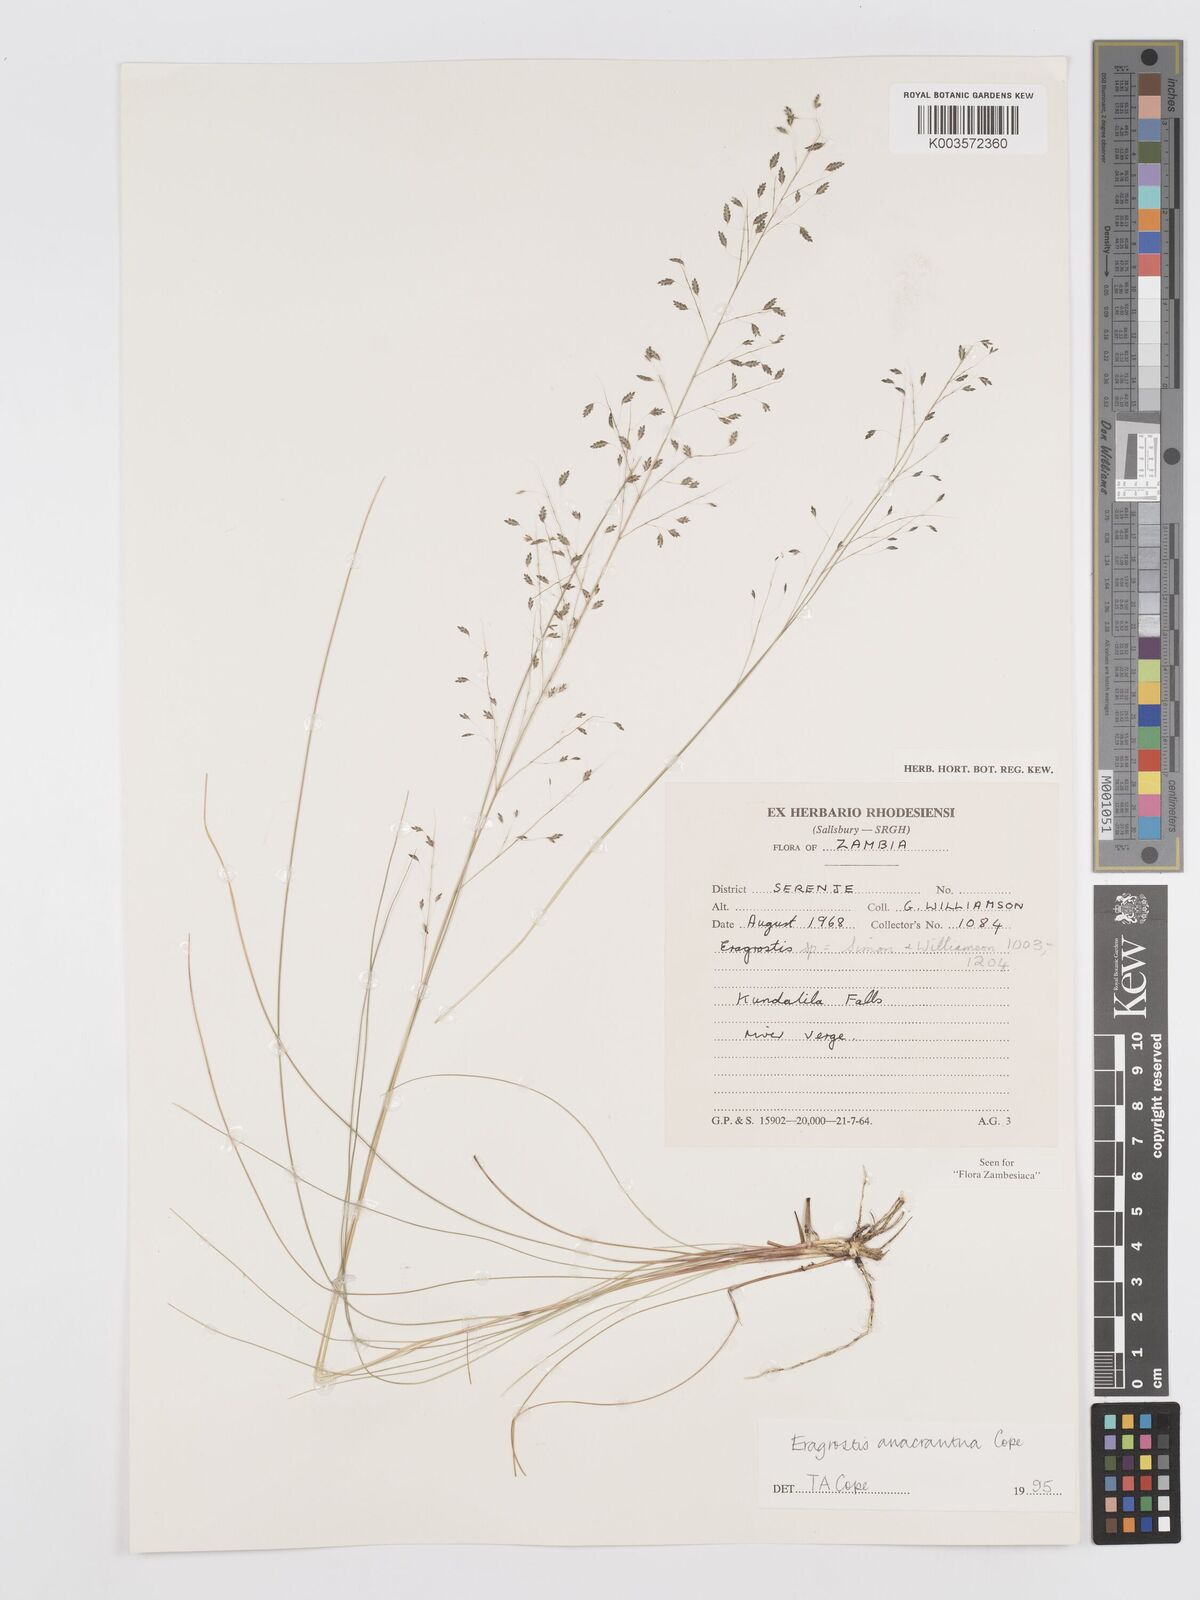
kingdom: Plantae
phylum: Tracheophyta
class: Liliopsida
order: Poales
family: Poaceae
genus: Eragrostis
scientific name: Eragrostis anacrantha
